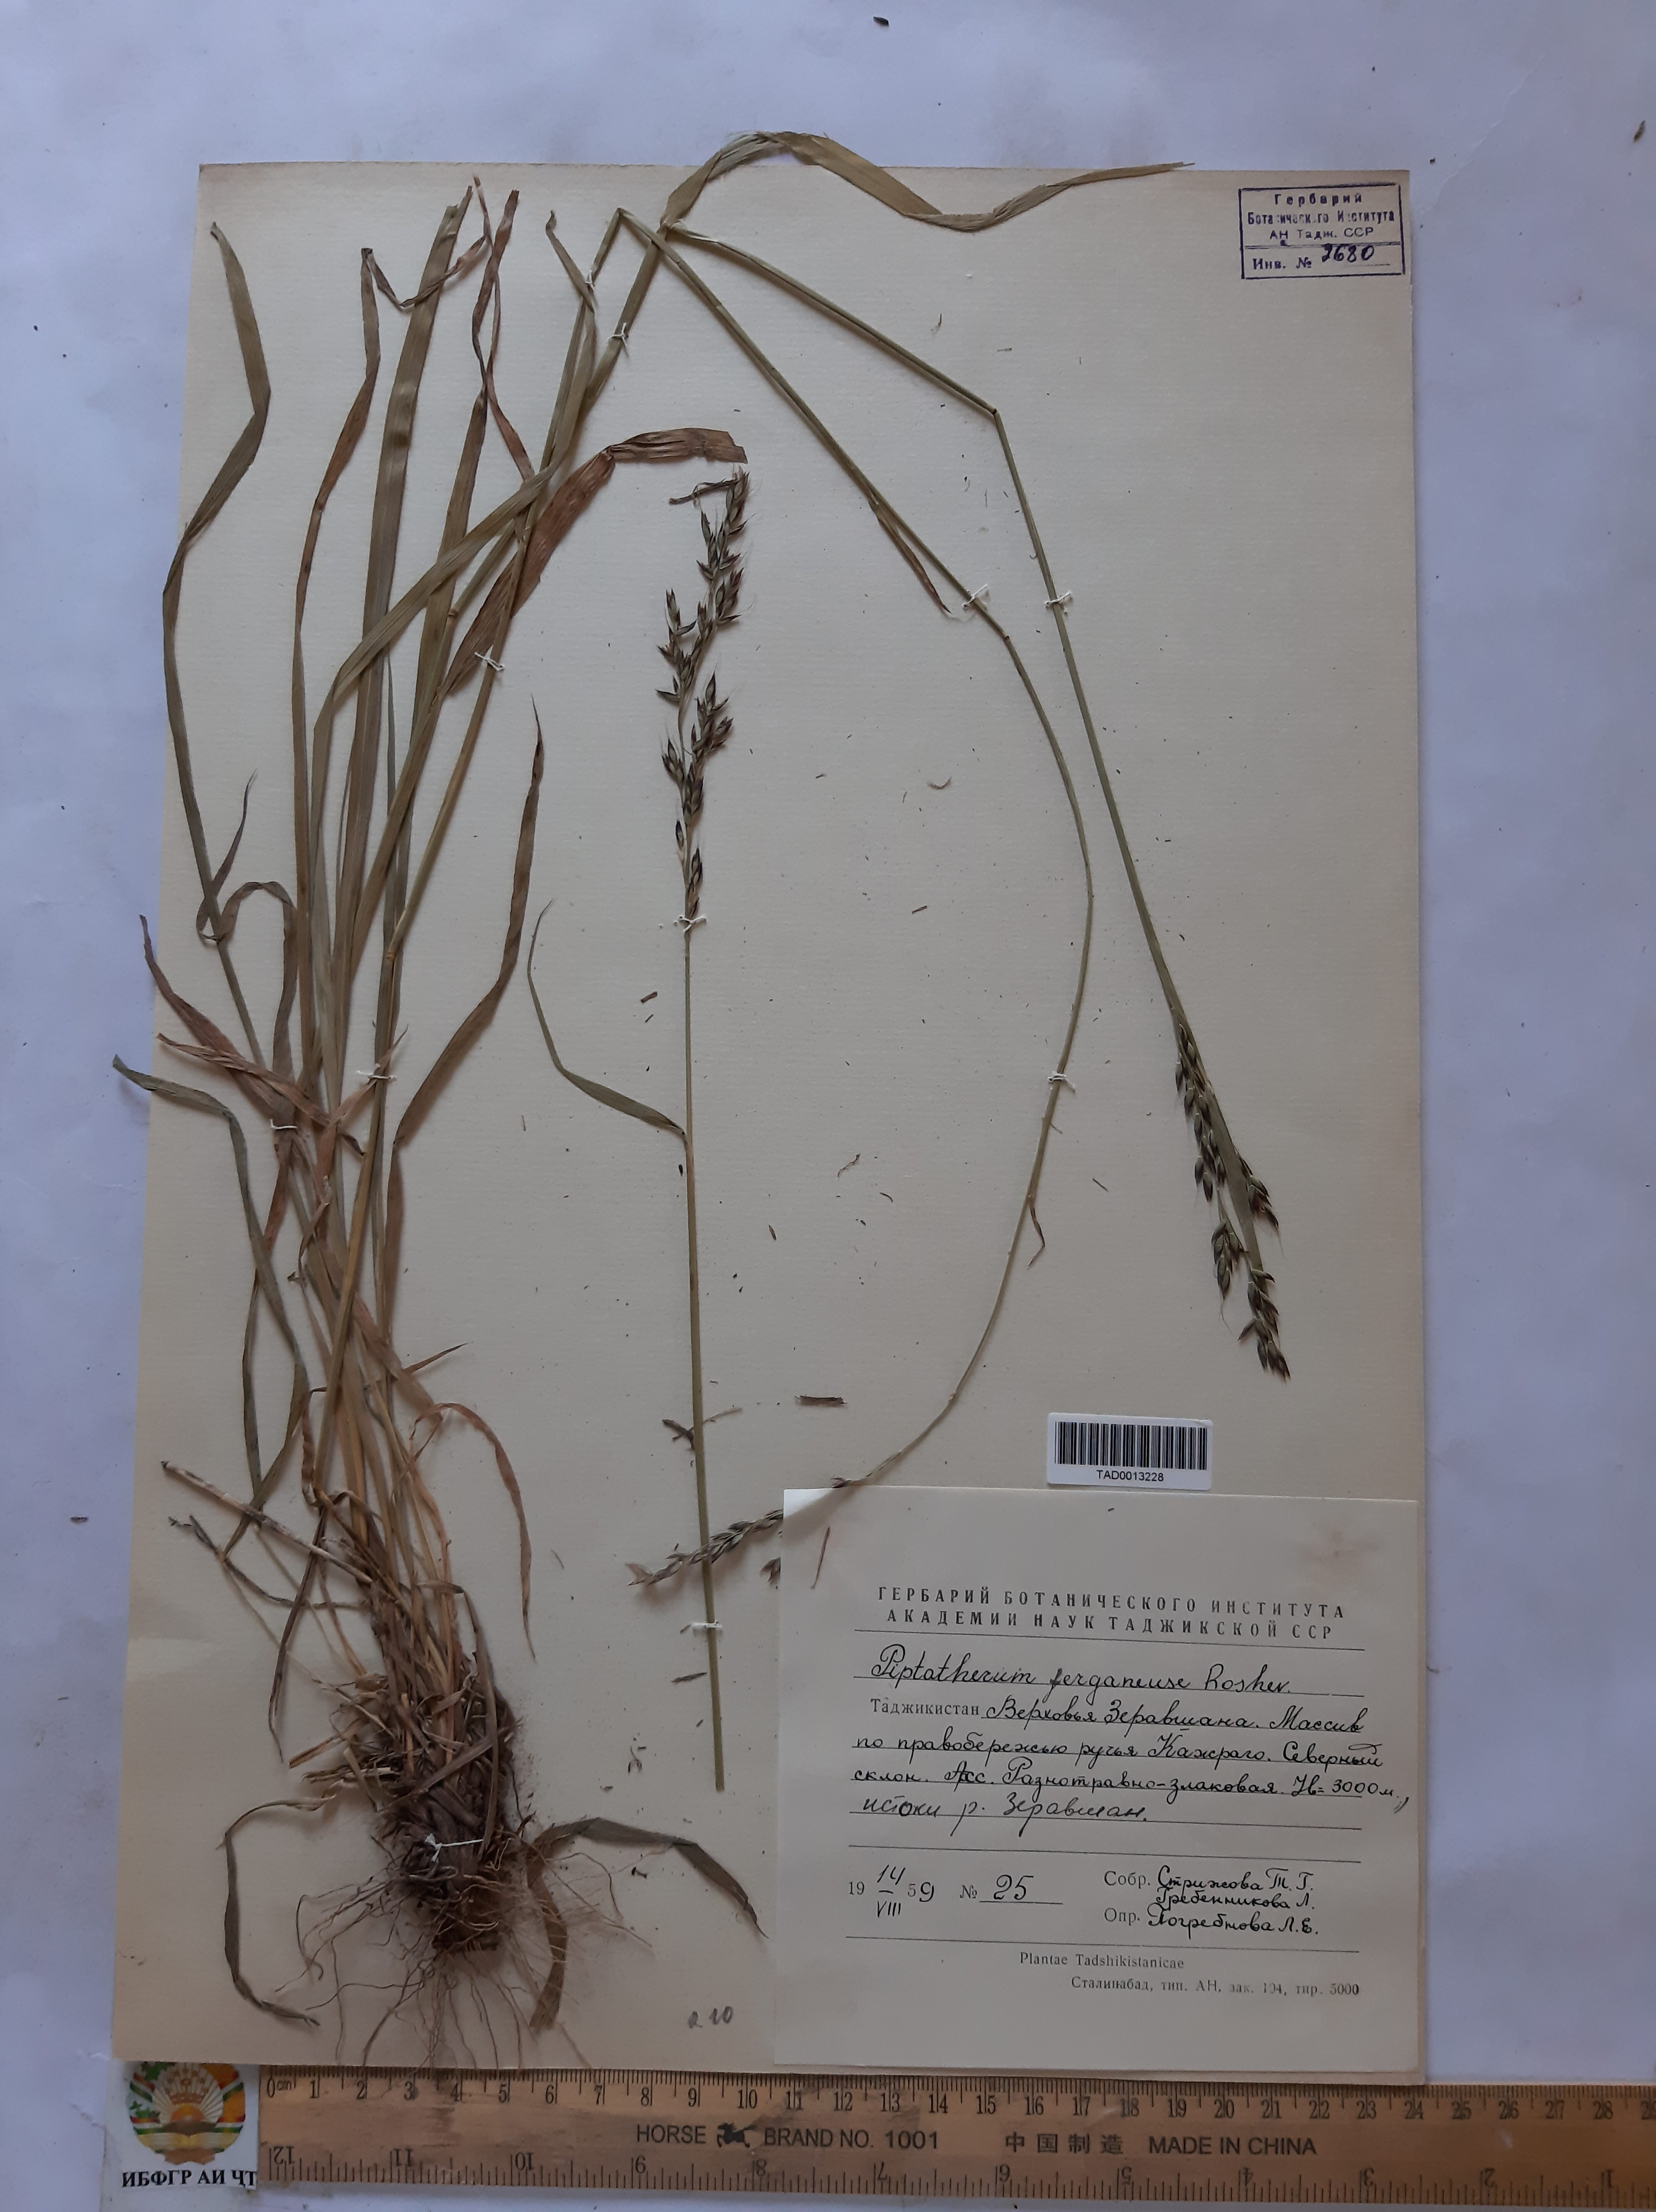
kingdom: Plantae
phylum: Tracheophyta
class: Liliopsida
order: Poales
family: Poaceae
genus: Piptatherum
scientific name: Piptatherum ferganense
